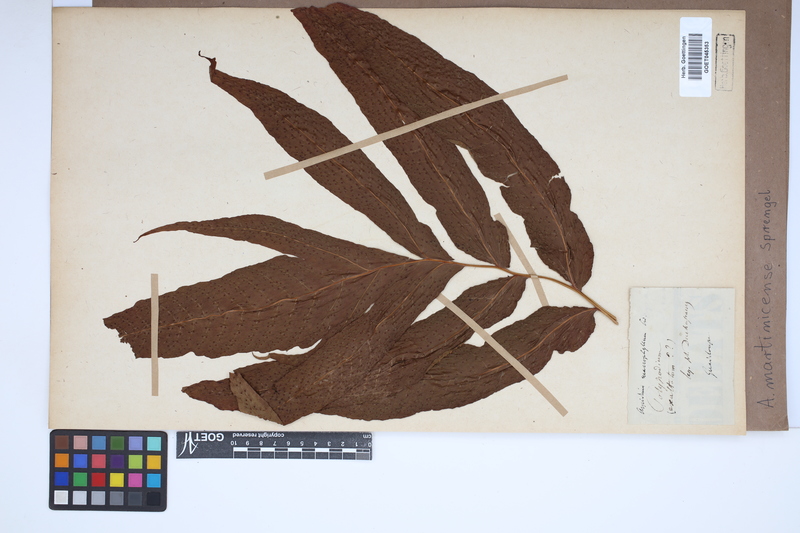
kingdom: Plantae
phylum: Tracheophyta
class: Polypodiopsida
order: Polypodiales
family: Tectariaceae
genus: Tectaria
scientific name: Tectaria incisa
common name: Incised halberd fern
